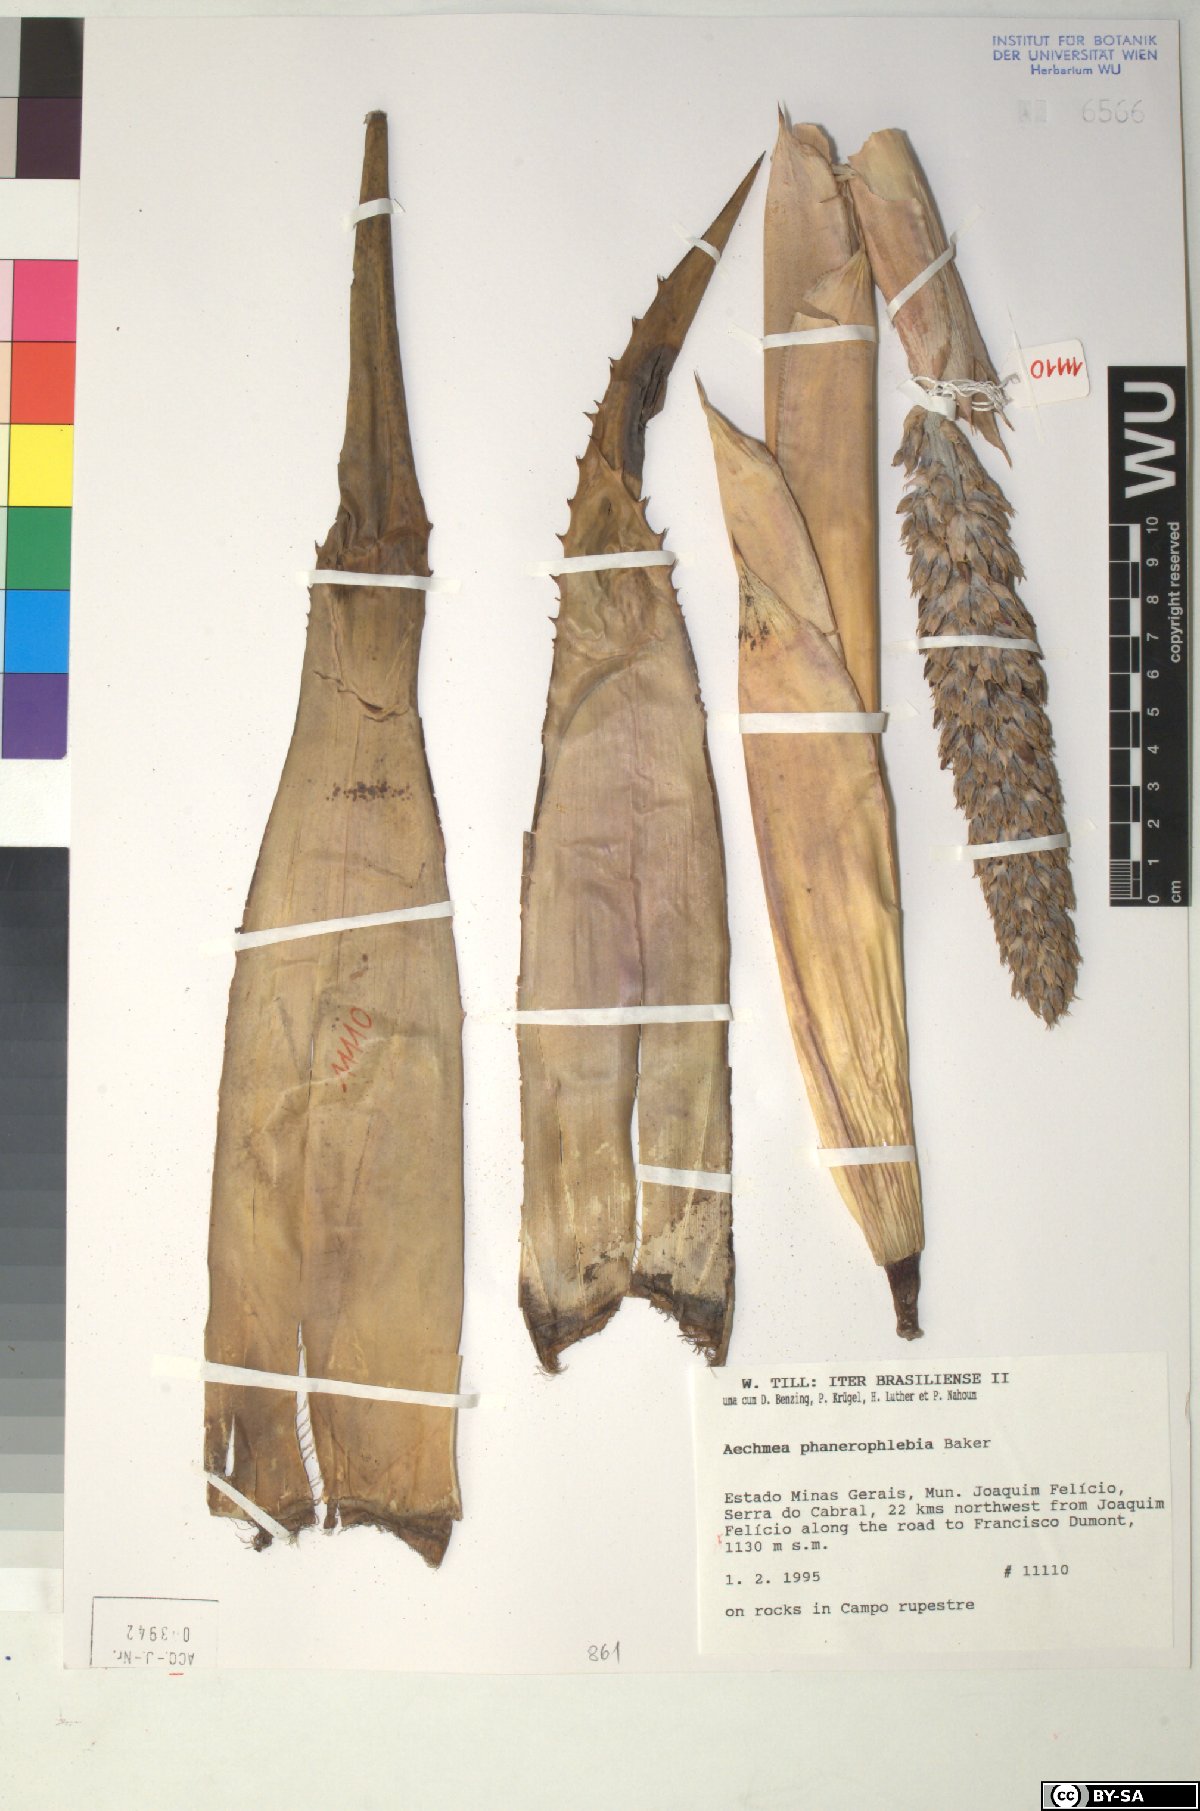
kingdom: Plantae
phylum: Tracheophyta
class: Liliopsida
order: Poales
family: Bromeliaceae
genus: Aechmea
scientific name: Aechmea phanerophlebia
